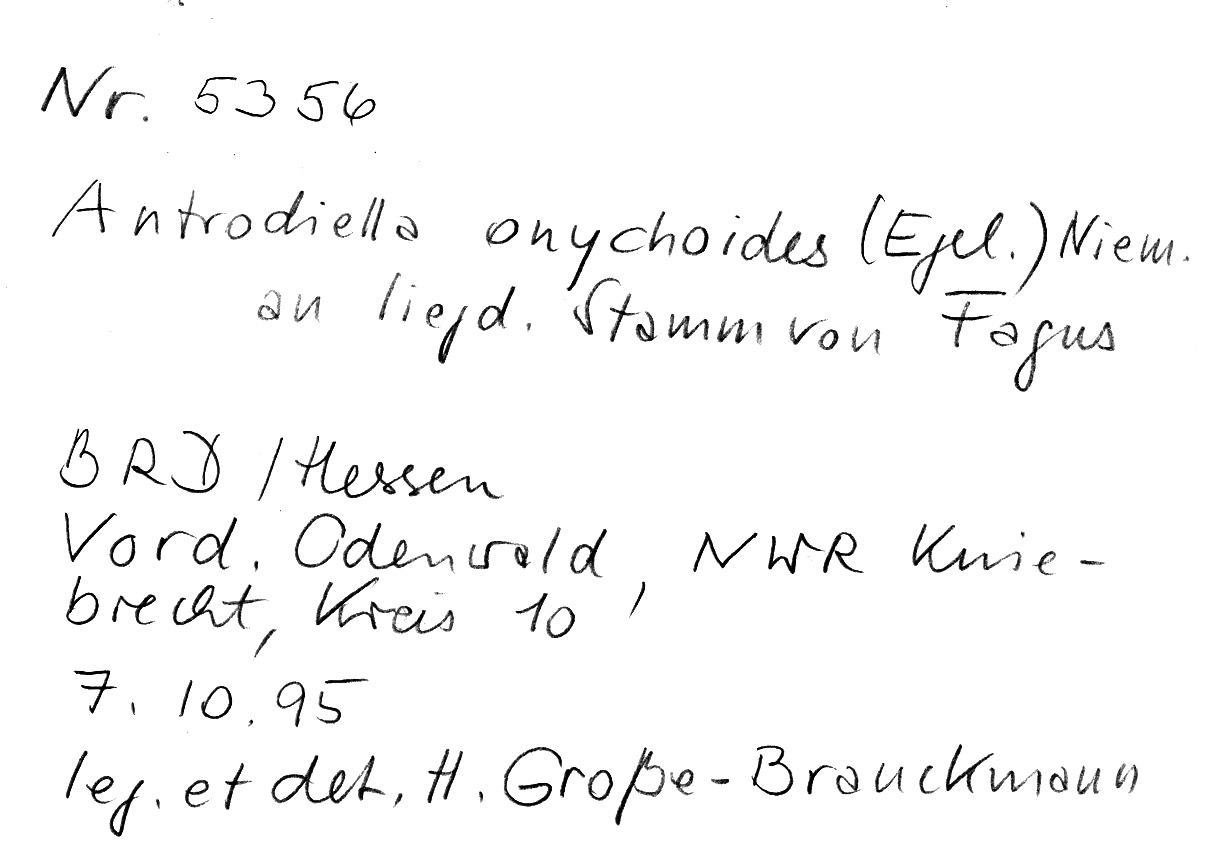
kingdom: Fungi
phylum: Basidiomycota
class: Agaricomycetes
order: Polyporales
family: Steccherinaceae
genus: Antrodiella
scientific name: Antrodiella onychoides
